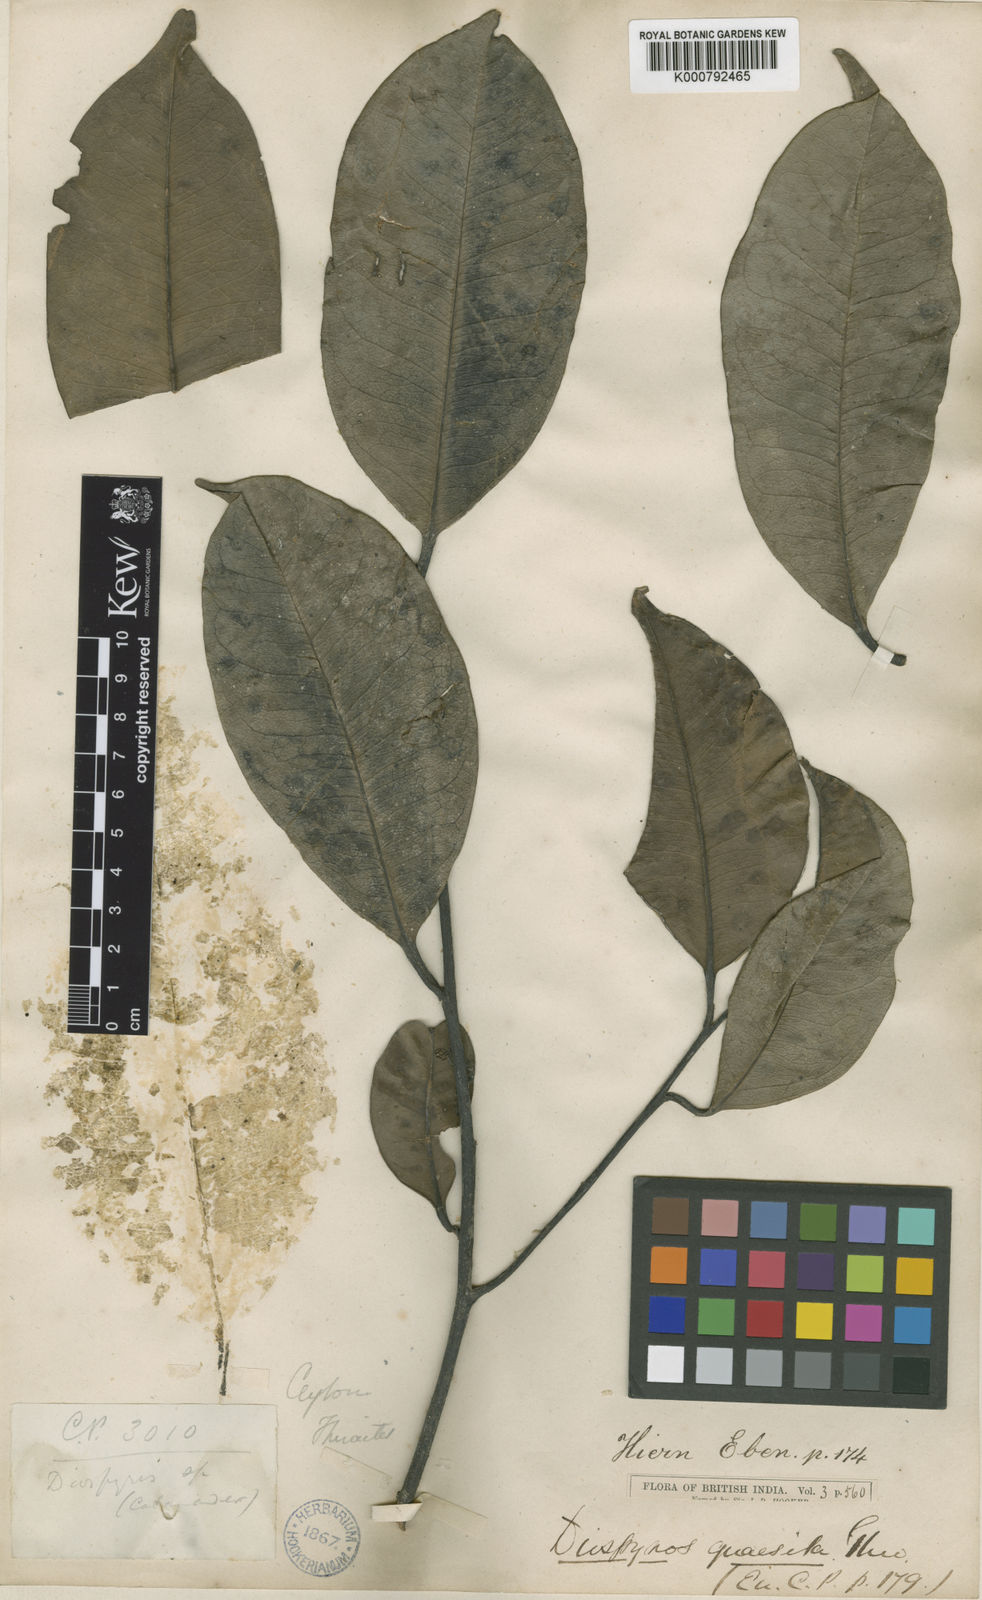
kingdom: Plantae
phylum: Tracheophyta
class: Magnoliopsida
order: Ericales
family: Ebenaceae
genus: Diospyros
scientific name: Diospyros quaesita
